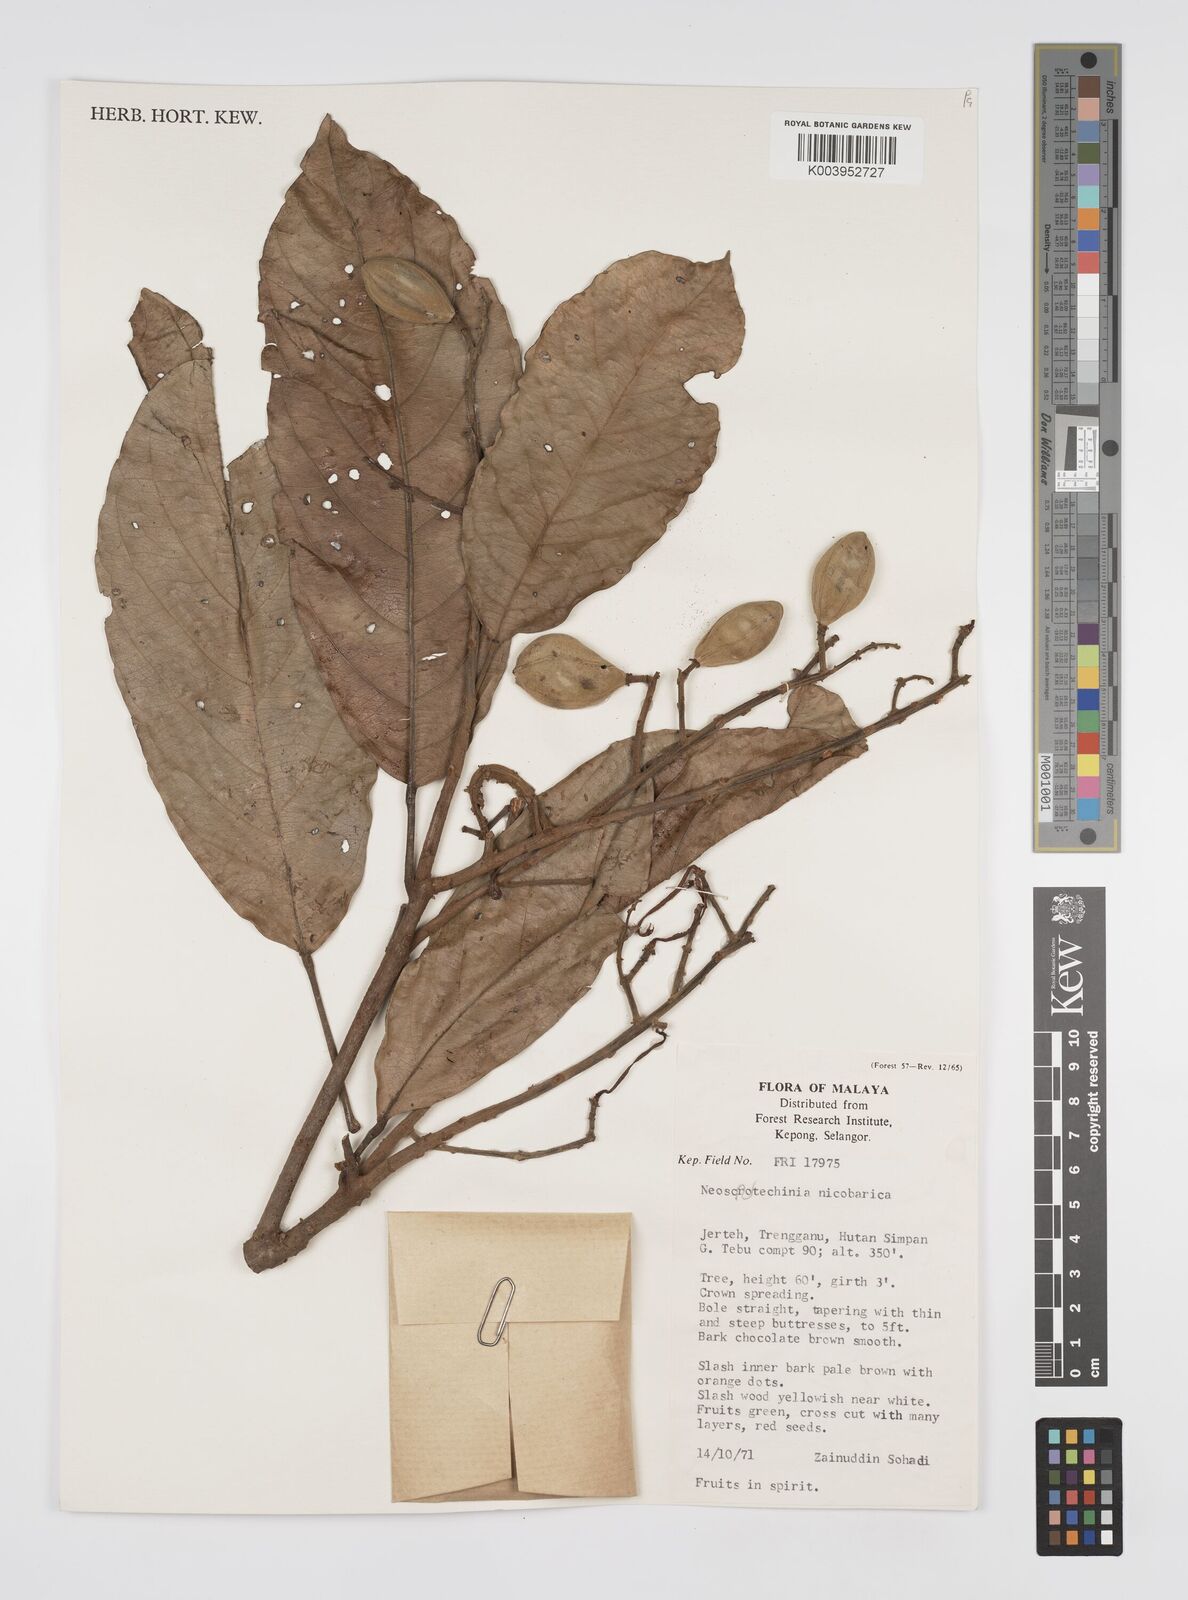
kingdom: Plantae
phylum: Tracheophyta
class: Magnoliopsida
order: Malpighiales
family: Euphorbiaceae
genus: Neoscortechinia
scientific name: Neoscortechinia nicobarica
